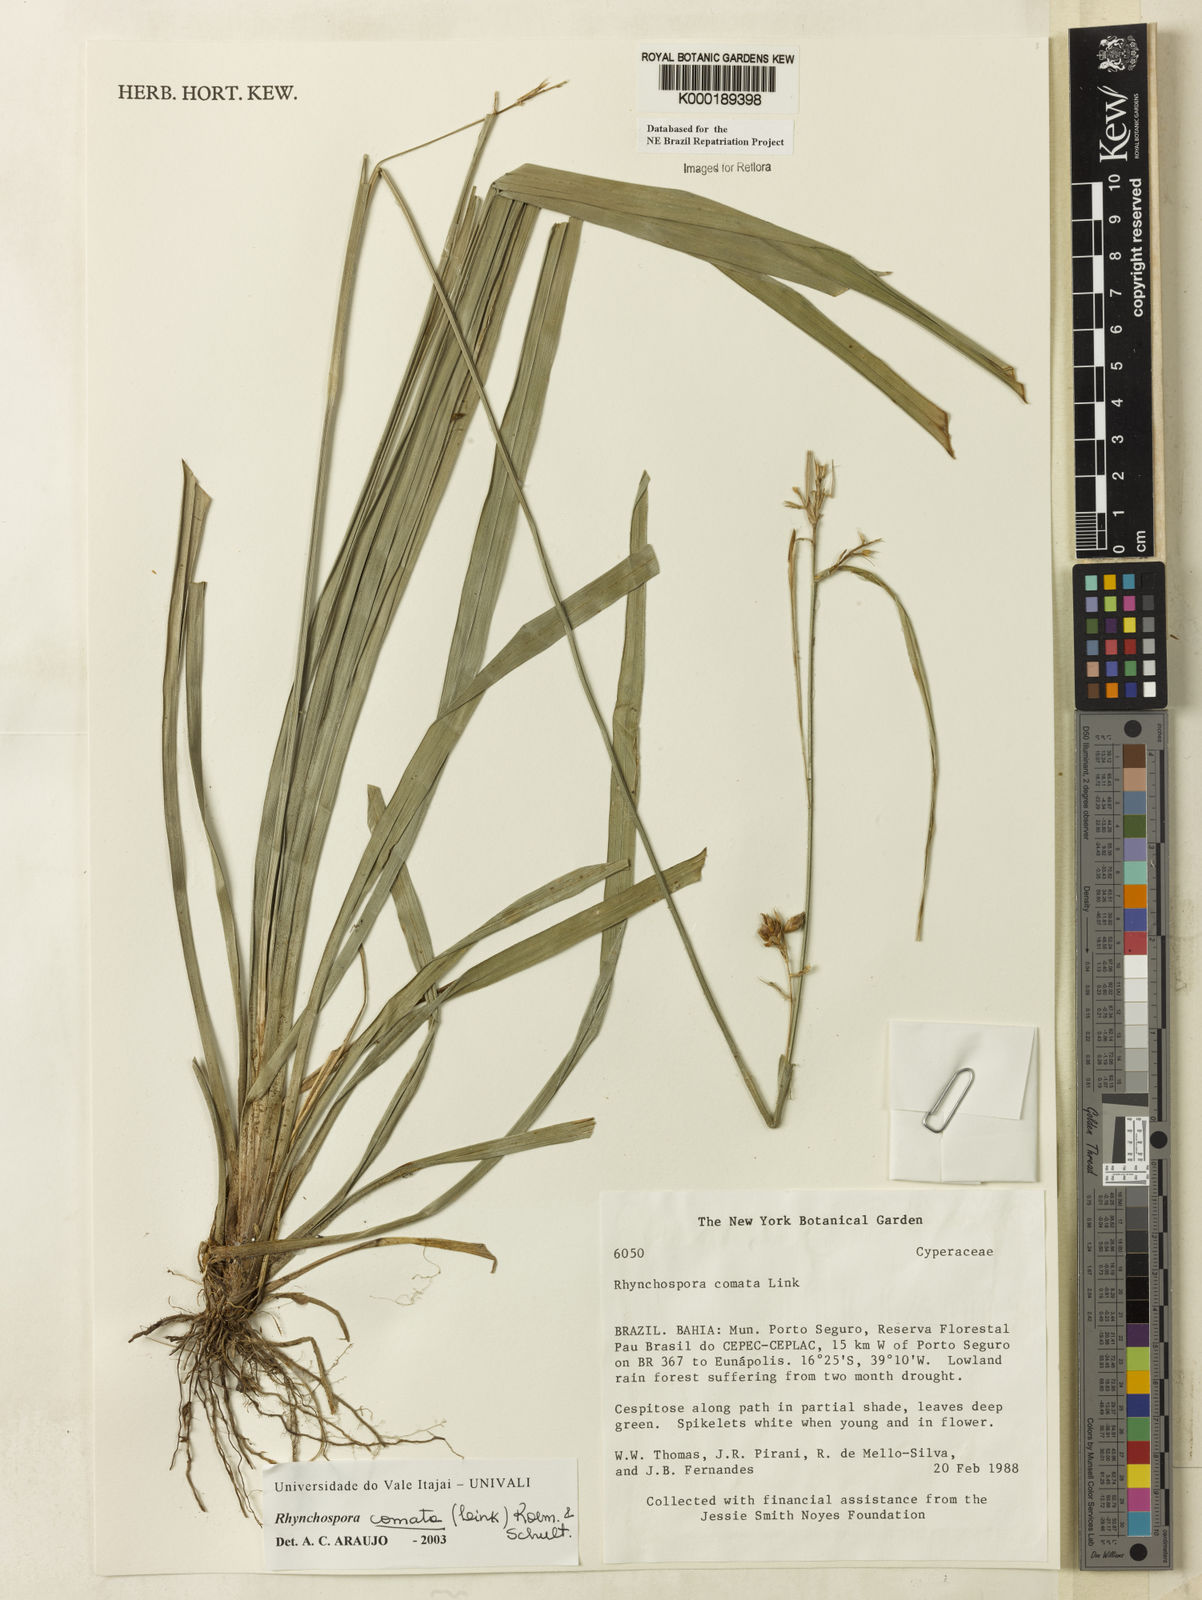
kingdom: Plantae
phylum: Tracheophyta
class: Liliopsida
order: Poales
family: Cyperaceae
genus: Rhynchospora
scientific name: Rhynchospora comata
